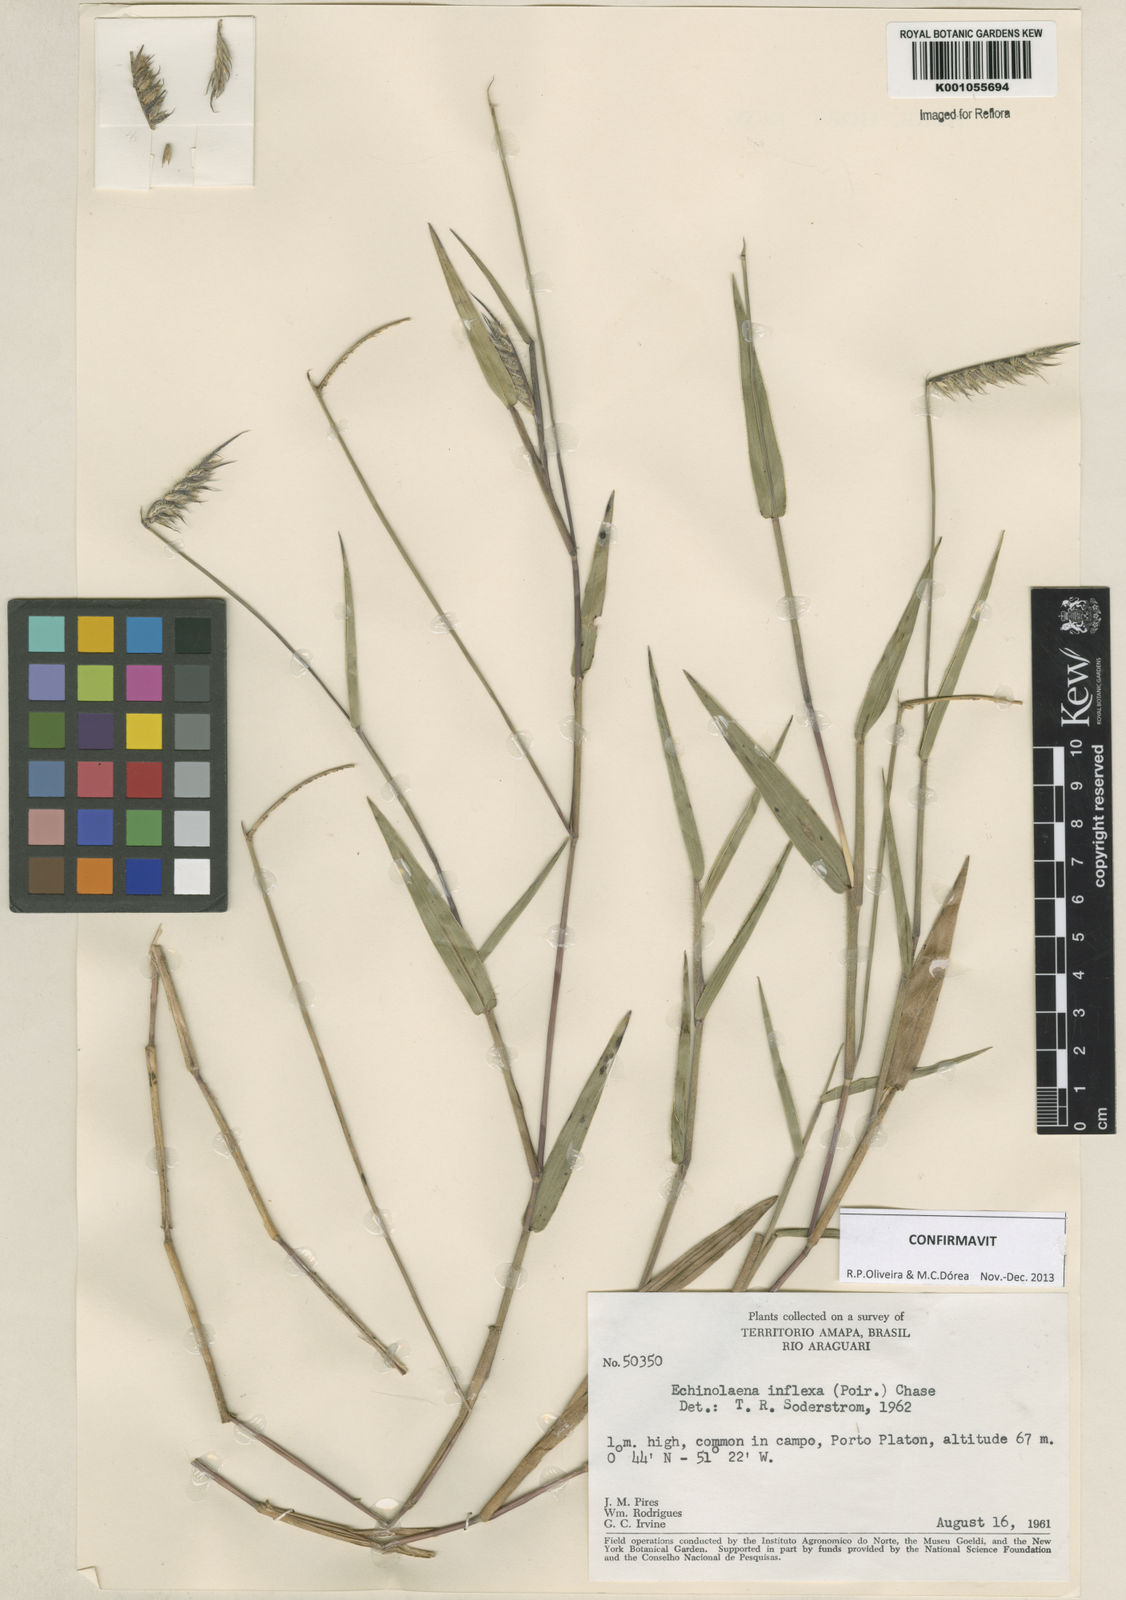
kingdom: Plantae
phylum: Tracheophyta
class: Liliopsida
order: Poales
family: Poaceae
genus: Echinolaena
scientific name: Echinolaena inflexa
